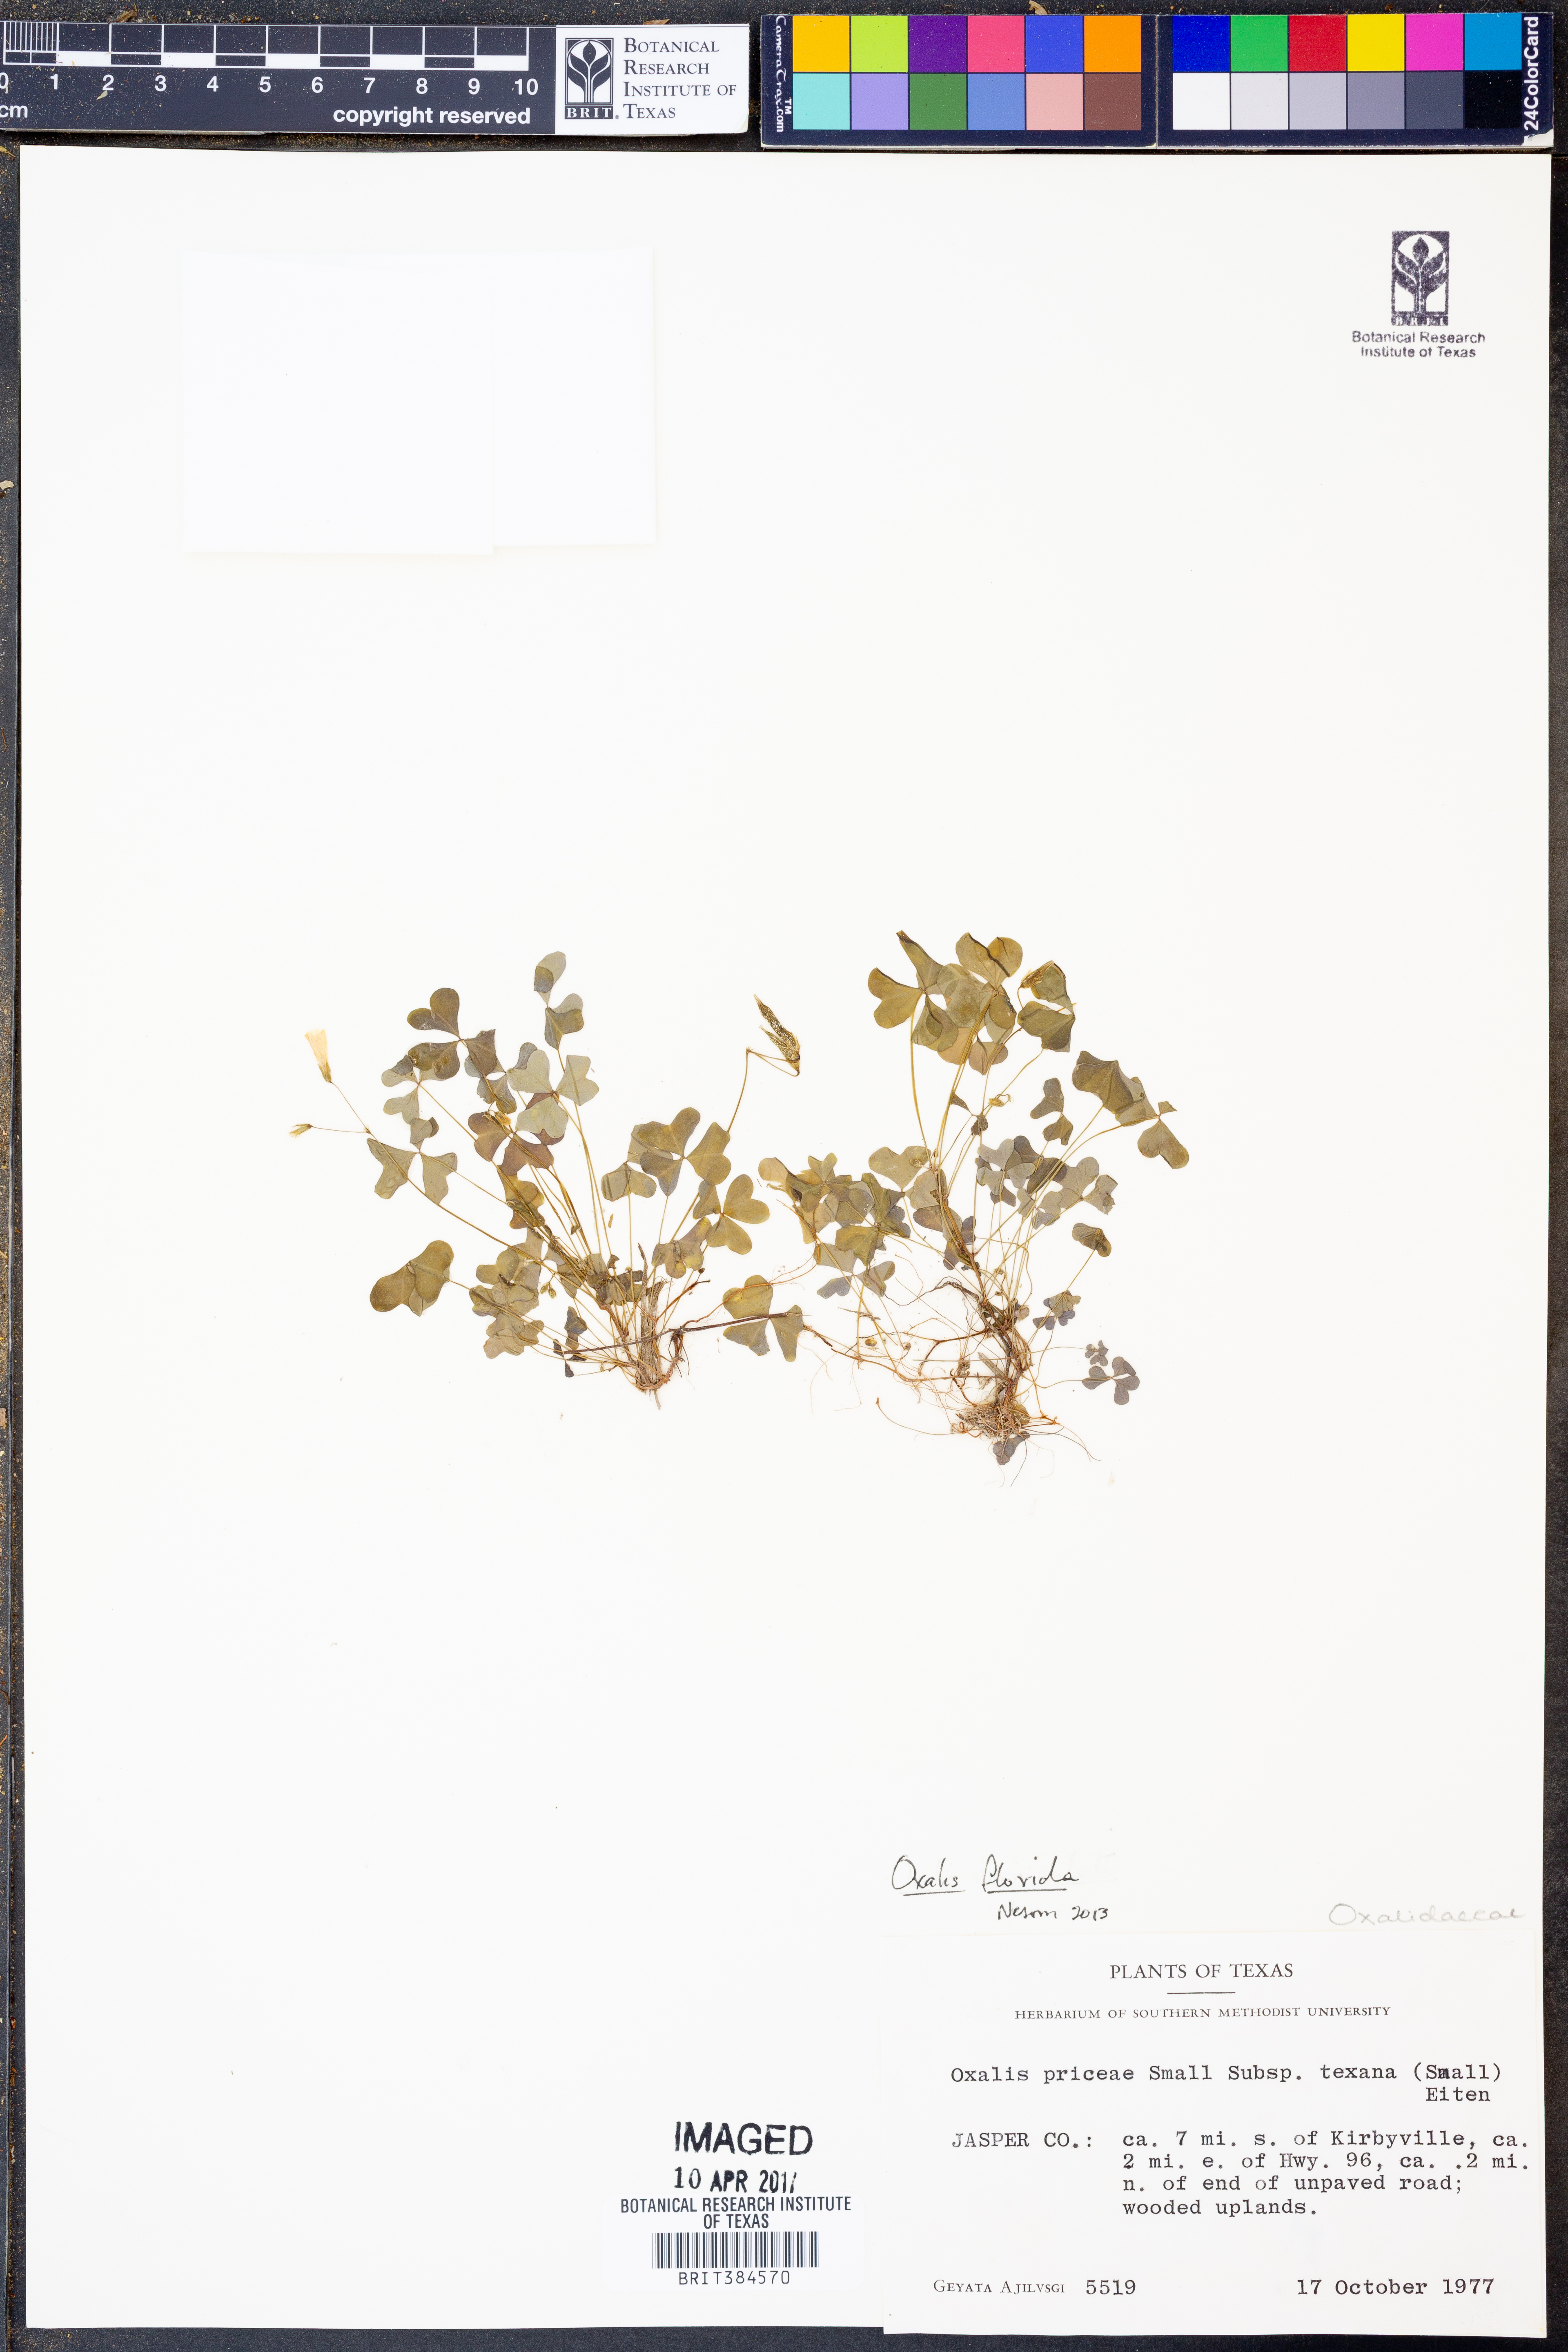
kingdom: Plantae
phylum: Tracheophyta
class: Magnoliopsida
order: Oxalidales
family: Oxalidaceae
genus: Oxalis
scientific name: Oxalis florida
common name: Flowering yellow woodsorrel
